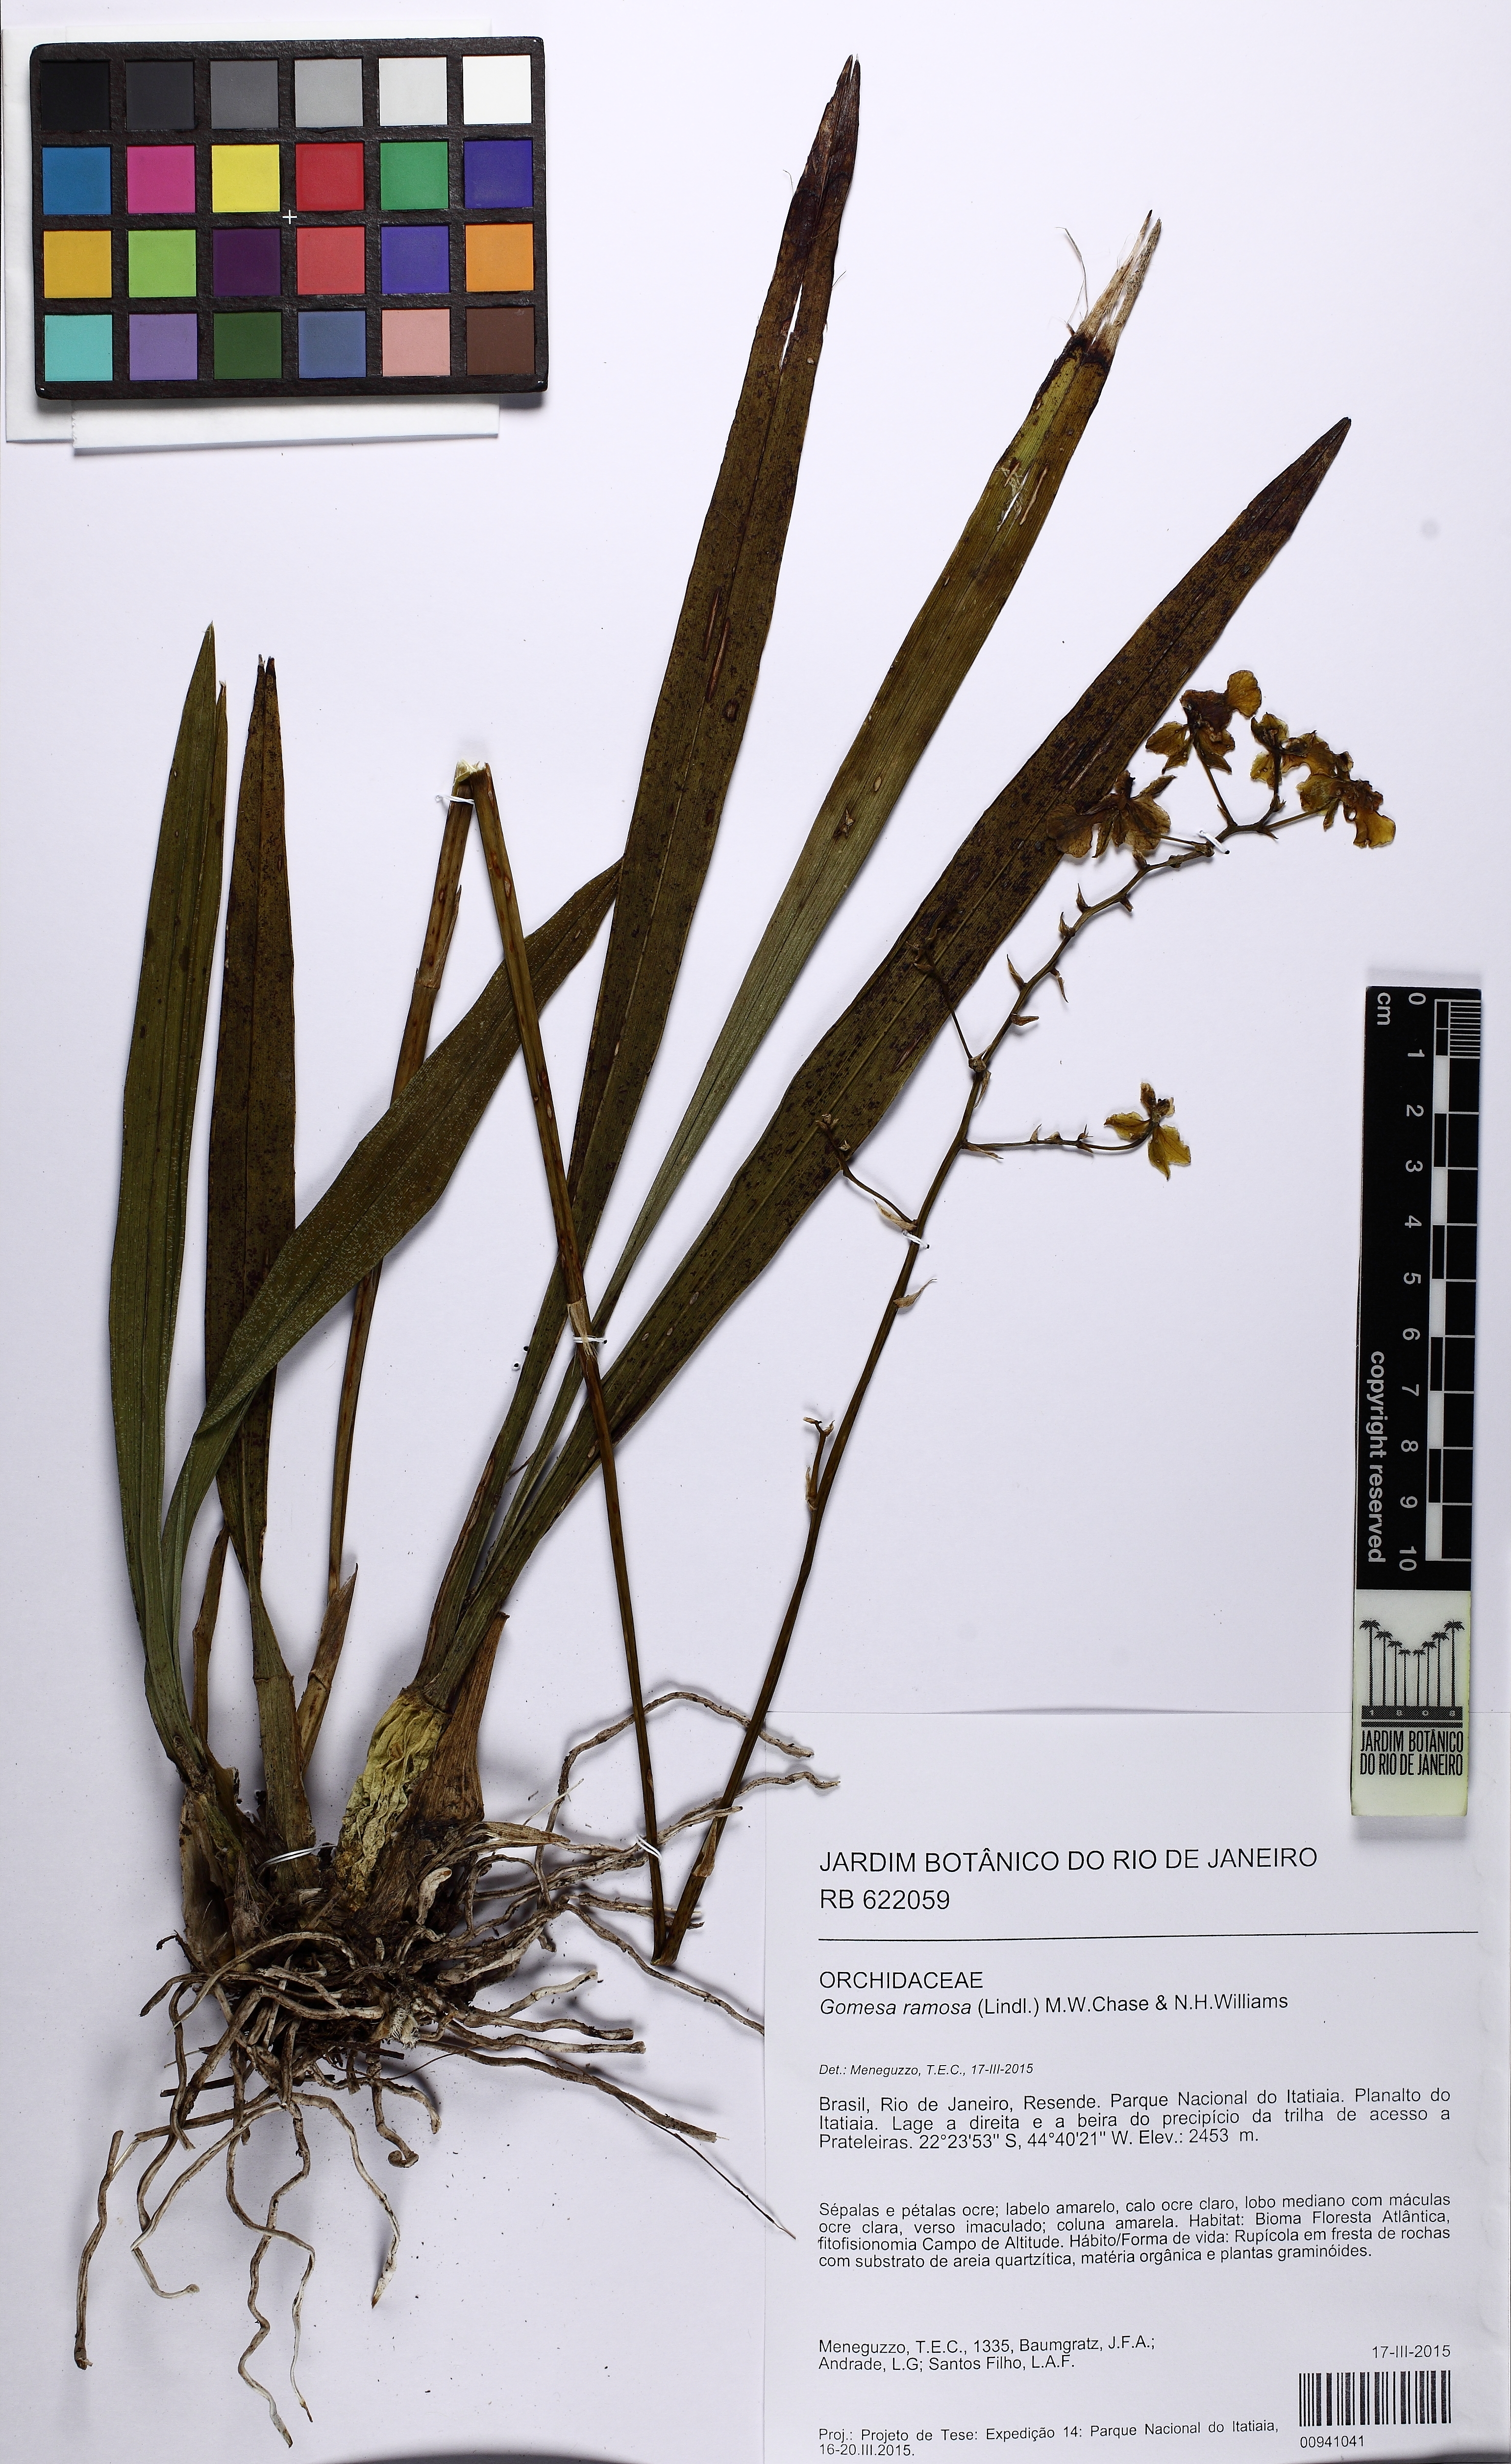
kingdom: Plantae
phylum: Tracheophyta
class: Liliopsida
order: Asparagales
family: Orchidaceae
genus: Gomesa
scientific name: Gomesa ramosa
